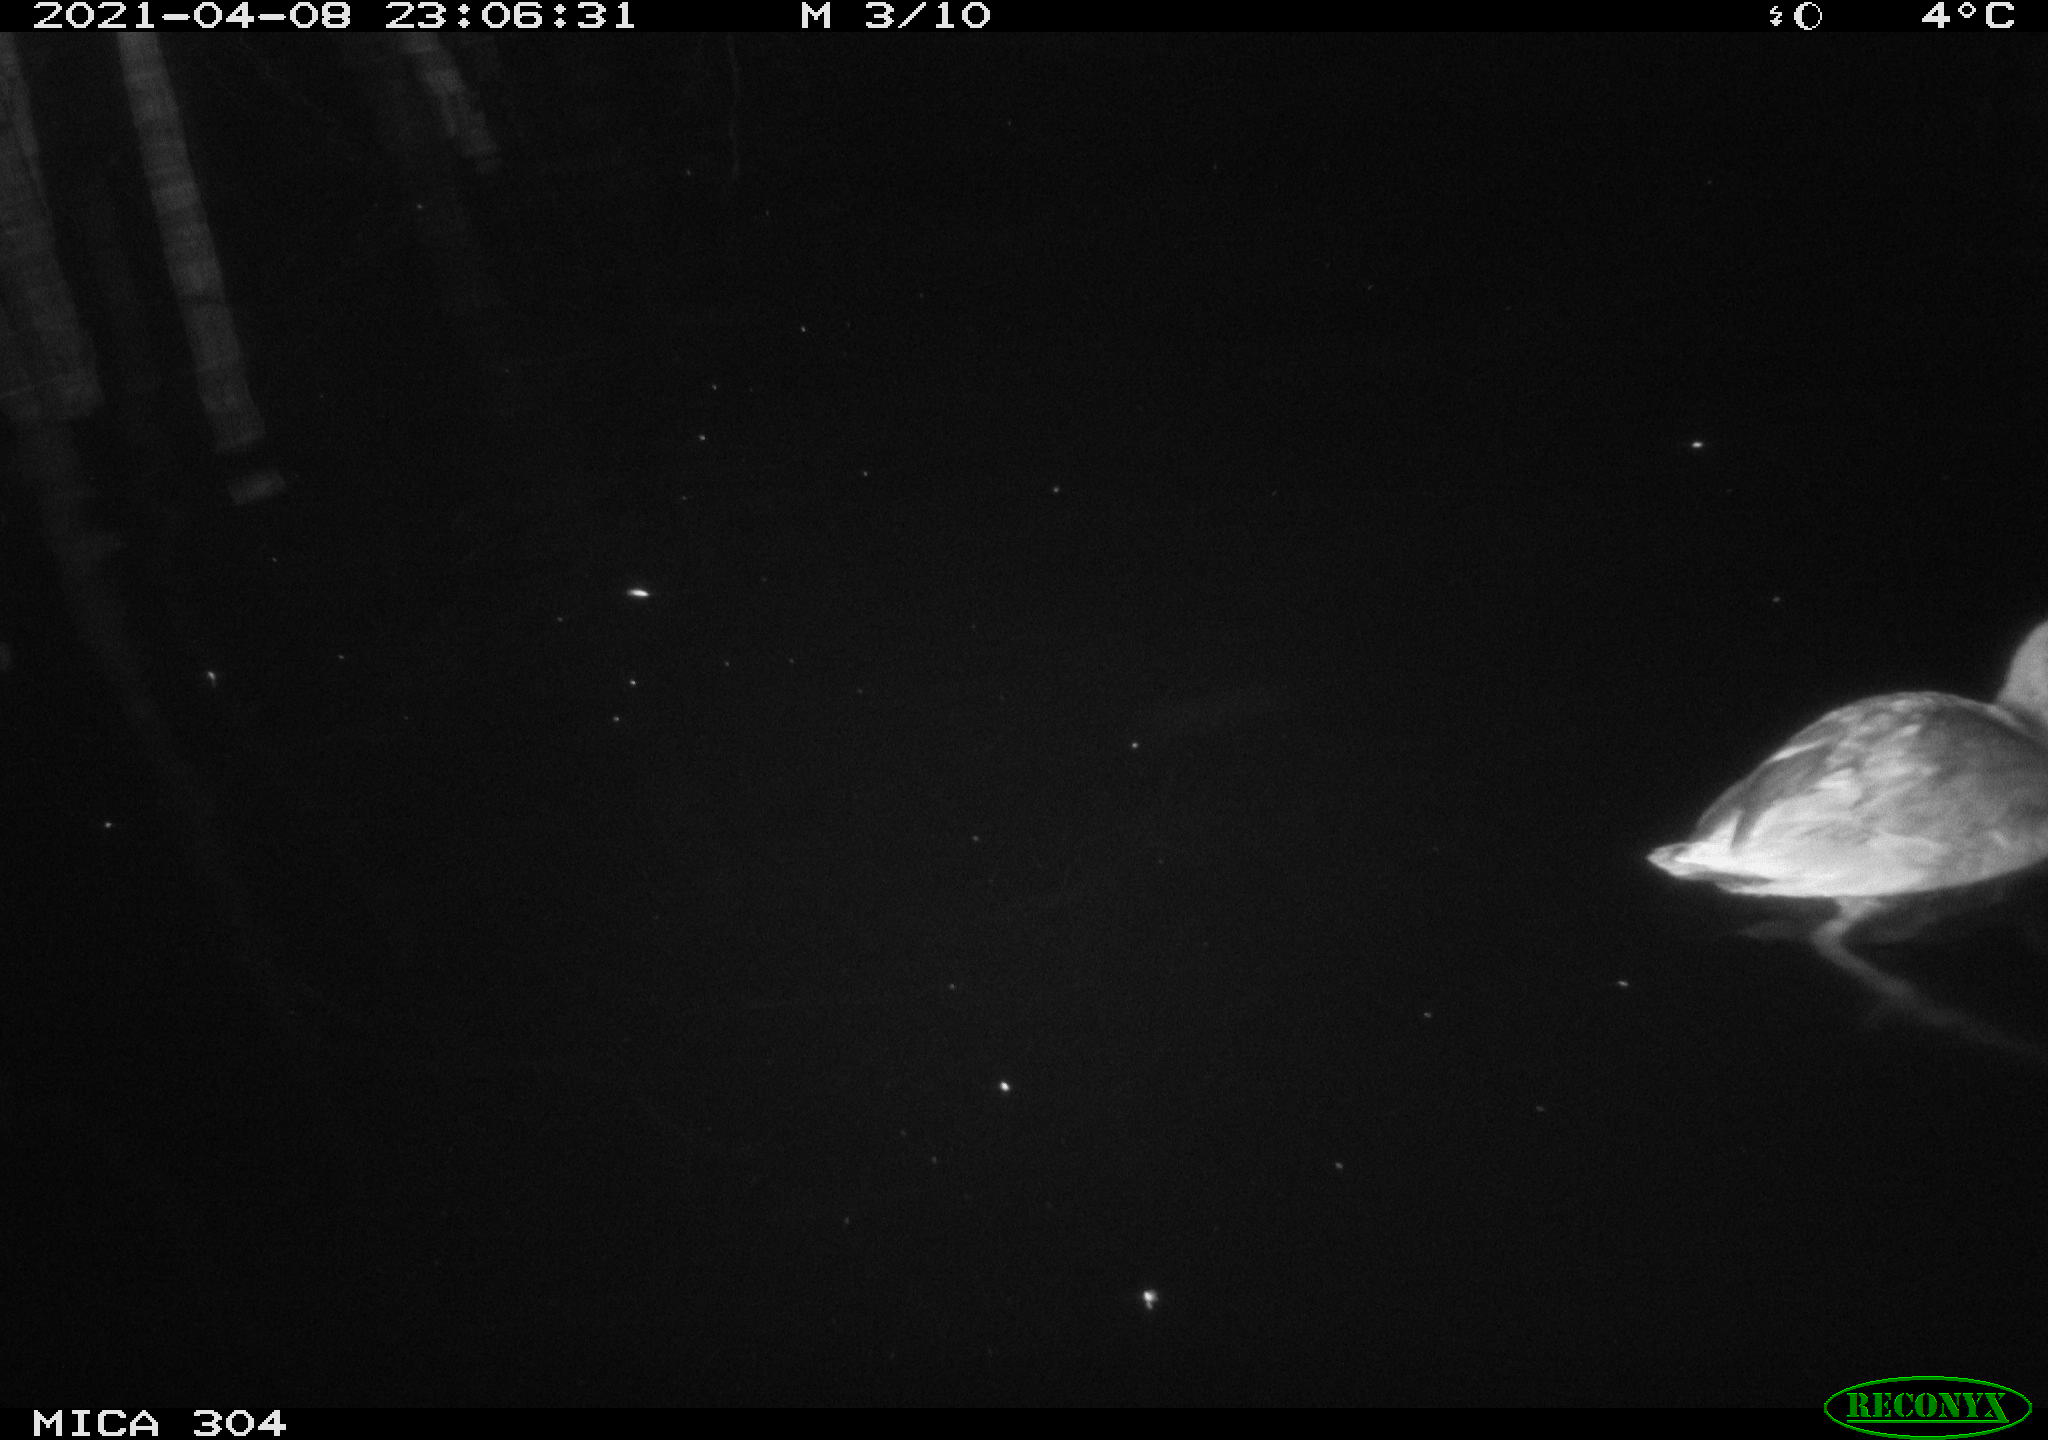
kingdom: Animalia
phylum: Chordata
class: Aves
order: Anseriformes
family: Anatidae
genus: Anas
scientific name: Anas
